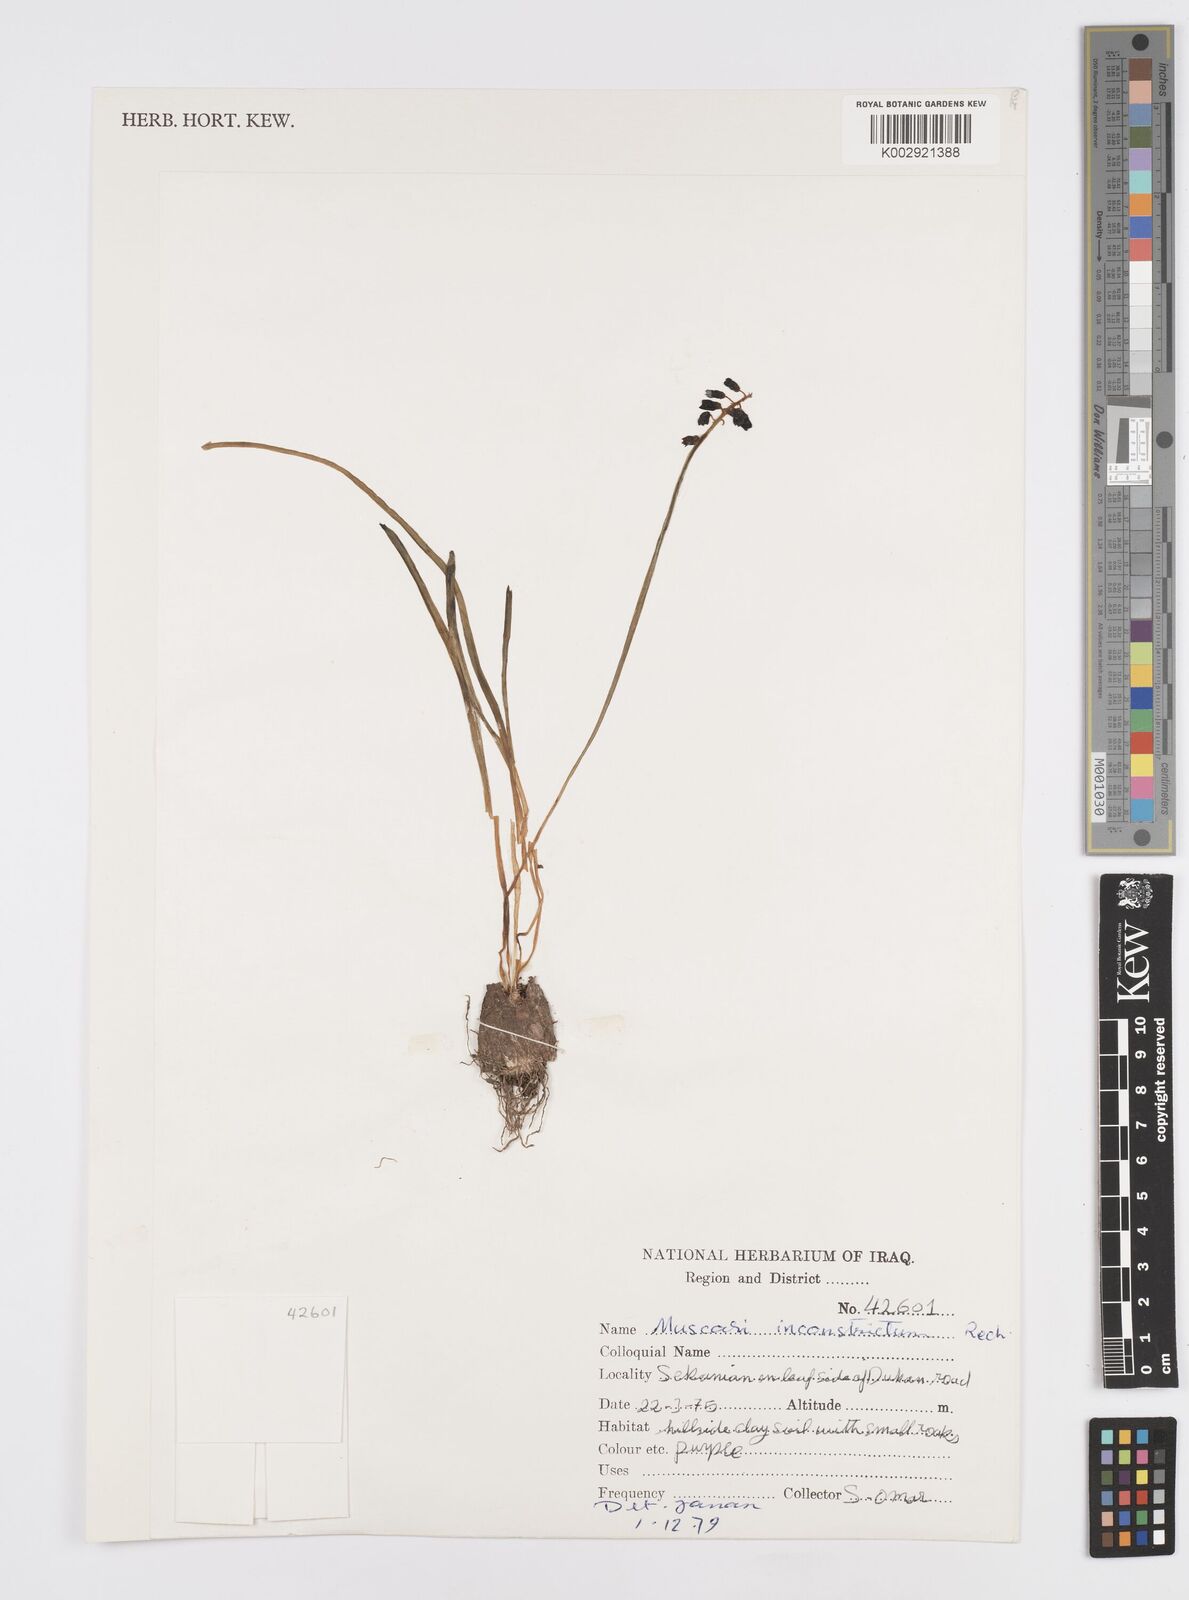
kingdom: Plantae
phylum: Tracheophyta
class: Liliopsida
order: Asparagales
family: Asparagaceae
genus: Muscari
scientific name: Muscari inconstrictum
